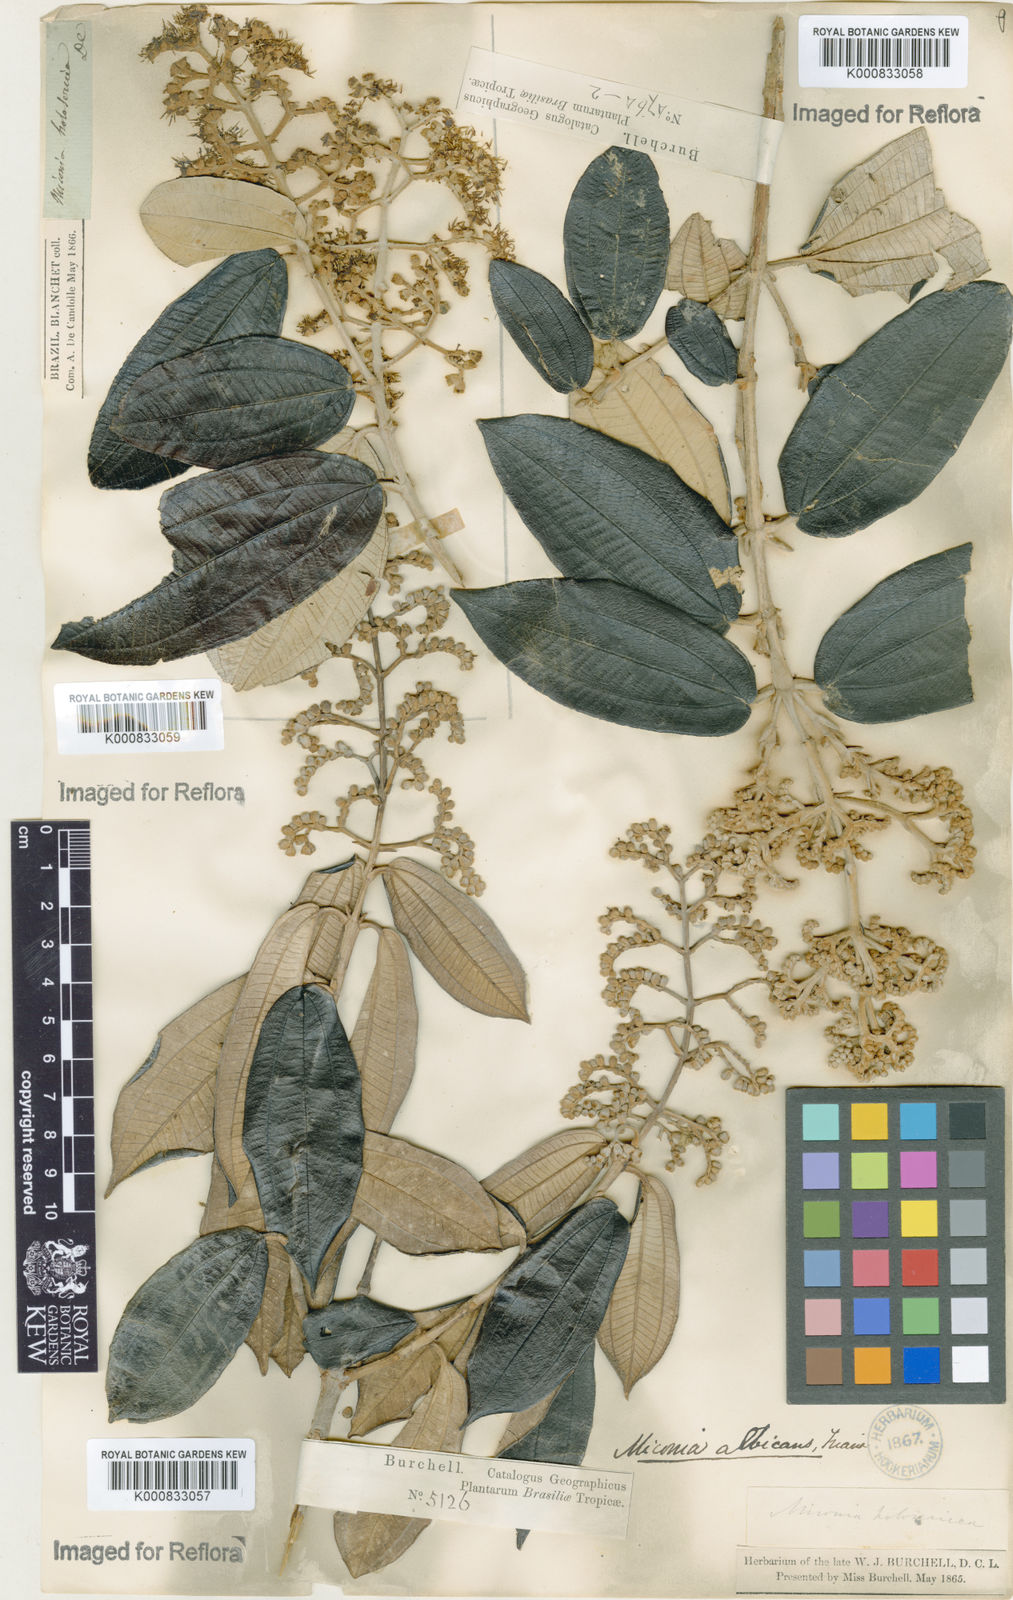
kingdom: Plantae
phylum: Tracheophyta
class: Magnoliopsida
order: Myrtales
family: Melastomataceae
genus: Miconia
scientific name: Miconia albicans
